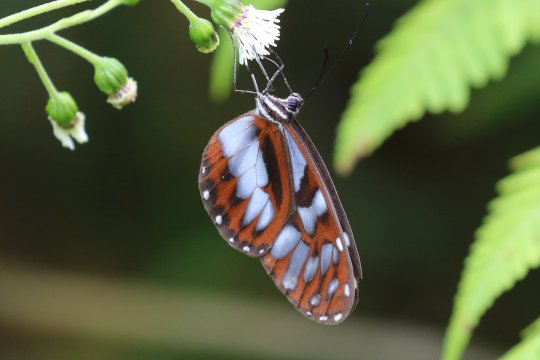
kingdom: Animalia
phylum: Arthropoda
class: Insecta
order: Lepidoptera
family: Nymphalidae
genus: Oleria
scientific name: Oleria cyrene
